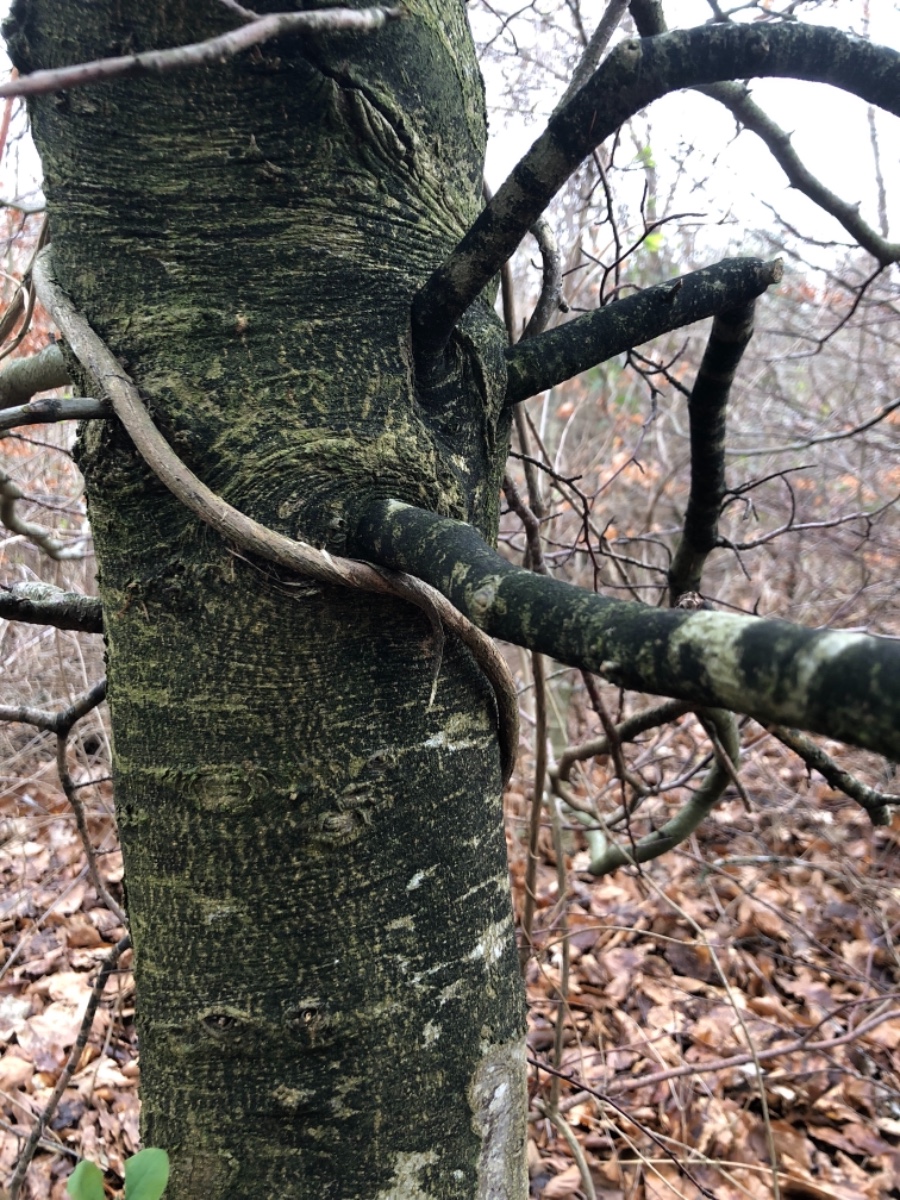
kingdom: Fungi
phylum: Ascomycota
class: Leotiomycetes
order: Rhytismatales
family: Ascodichaenaceae
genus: Ascodichaena
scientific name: Ascodichaena rugosa
